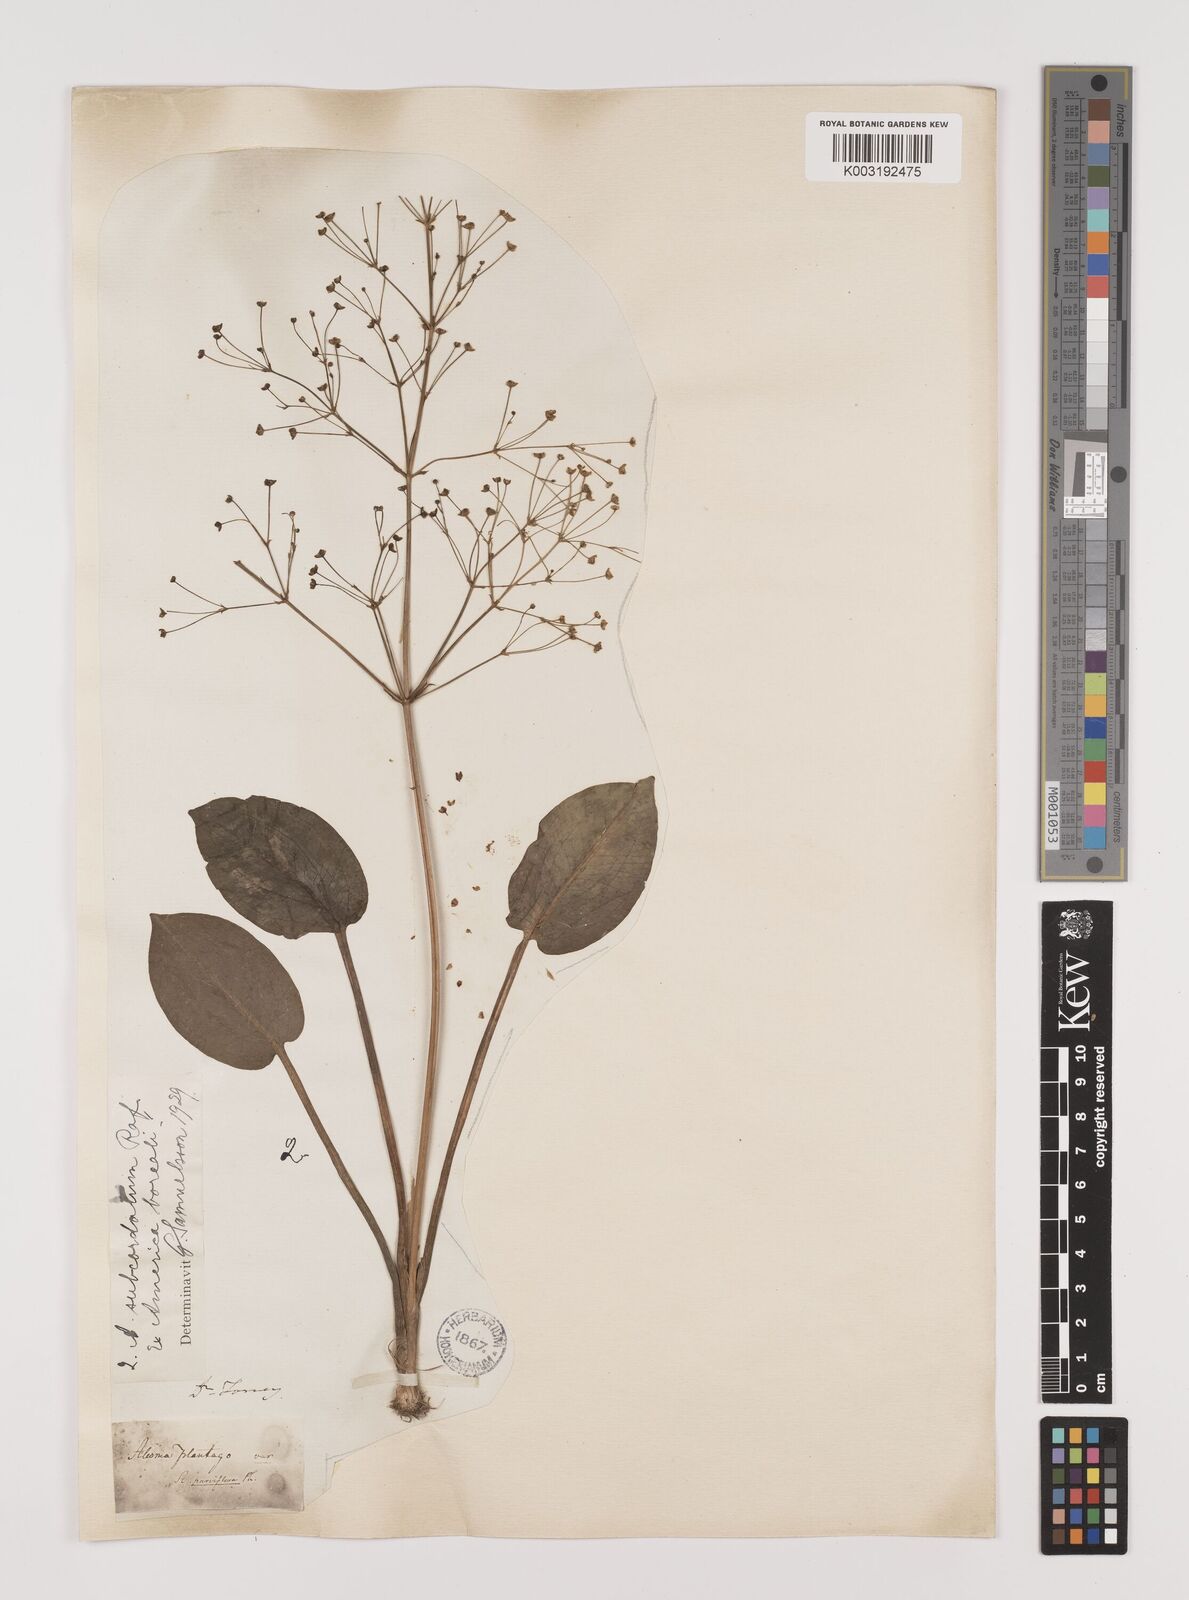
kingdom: Plantae
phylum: Tracheophyta
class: Liliopsida
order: Alismatales
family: Alismataceae
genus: Alisma
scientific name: Alisma subcordatum
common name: Southern water-plantain
